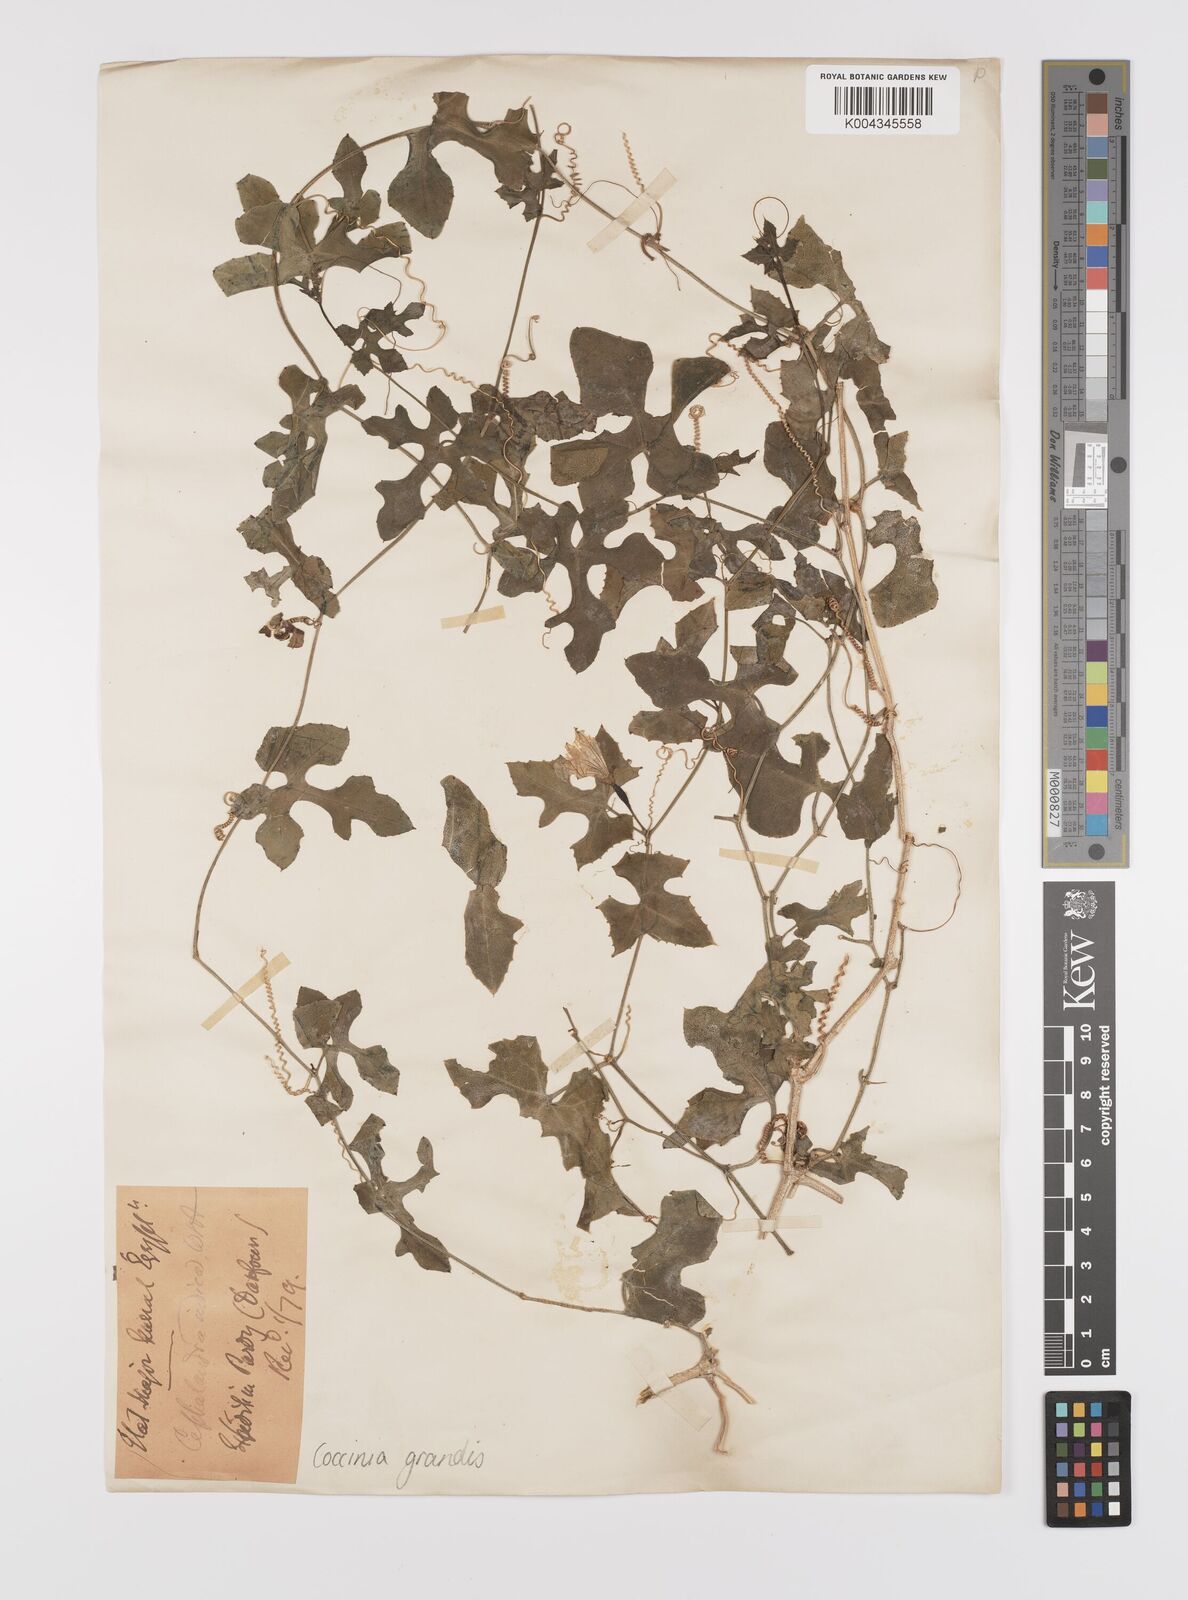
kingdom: Plantae
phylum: Tracheophyta
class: Magnoliopsida
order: Cucurbitales
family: Cucurbitaceae
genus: Coccinia
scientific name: Coccinia grandis
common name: Ivy gourd
